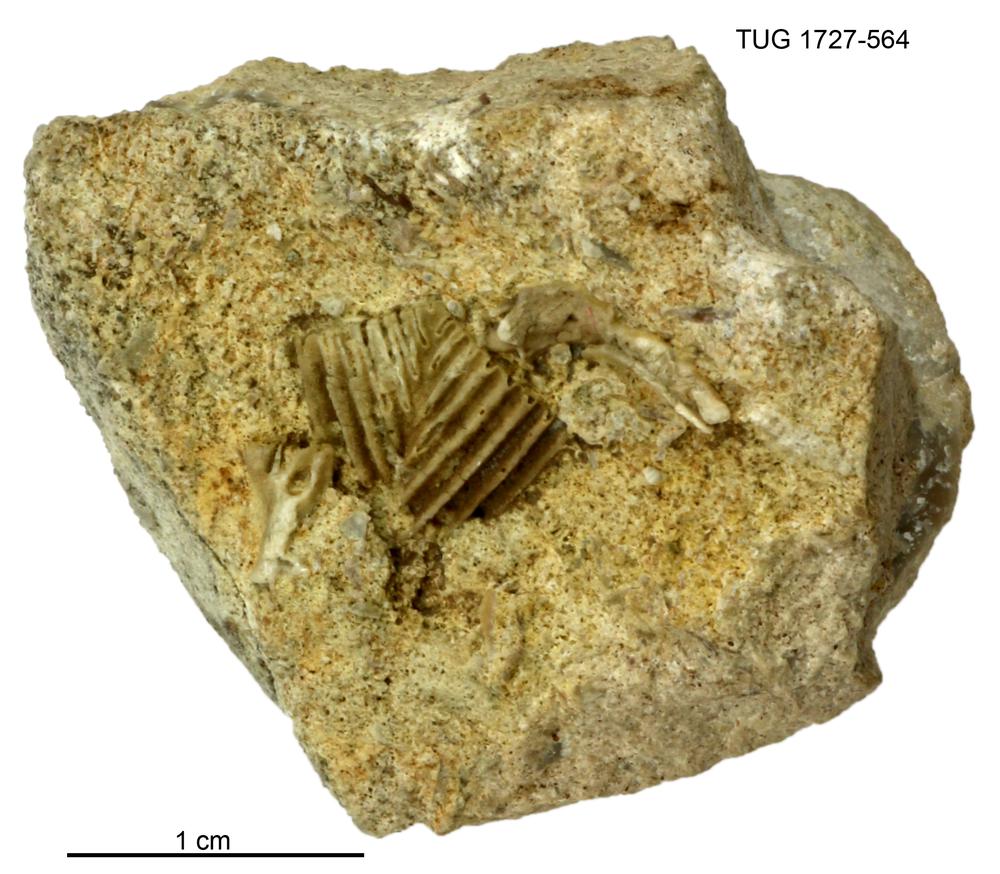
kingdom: Animalia
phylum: Echinodermata
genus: Polyptychella
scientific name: Polyptychella
